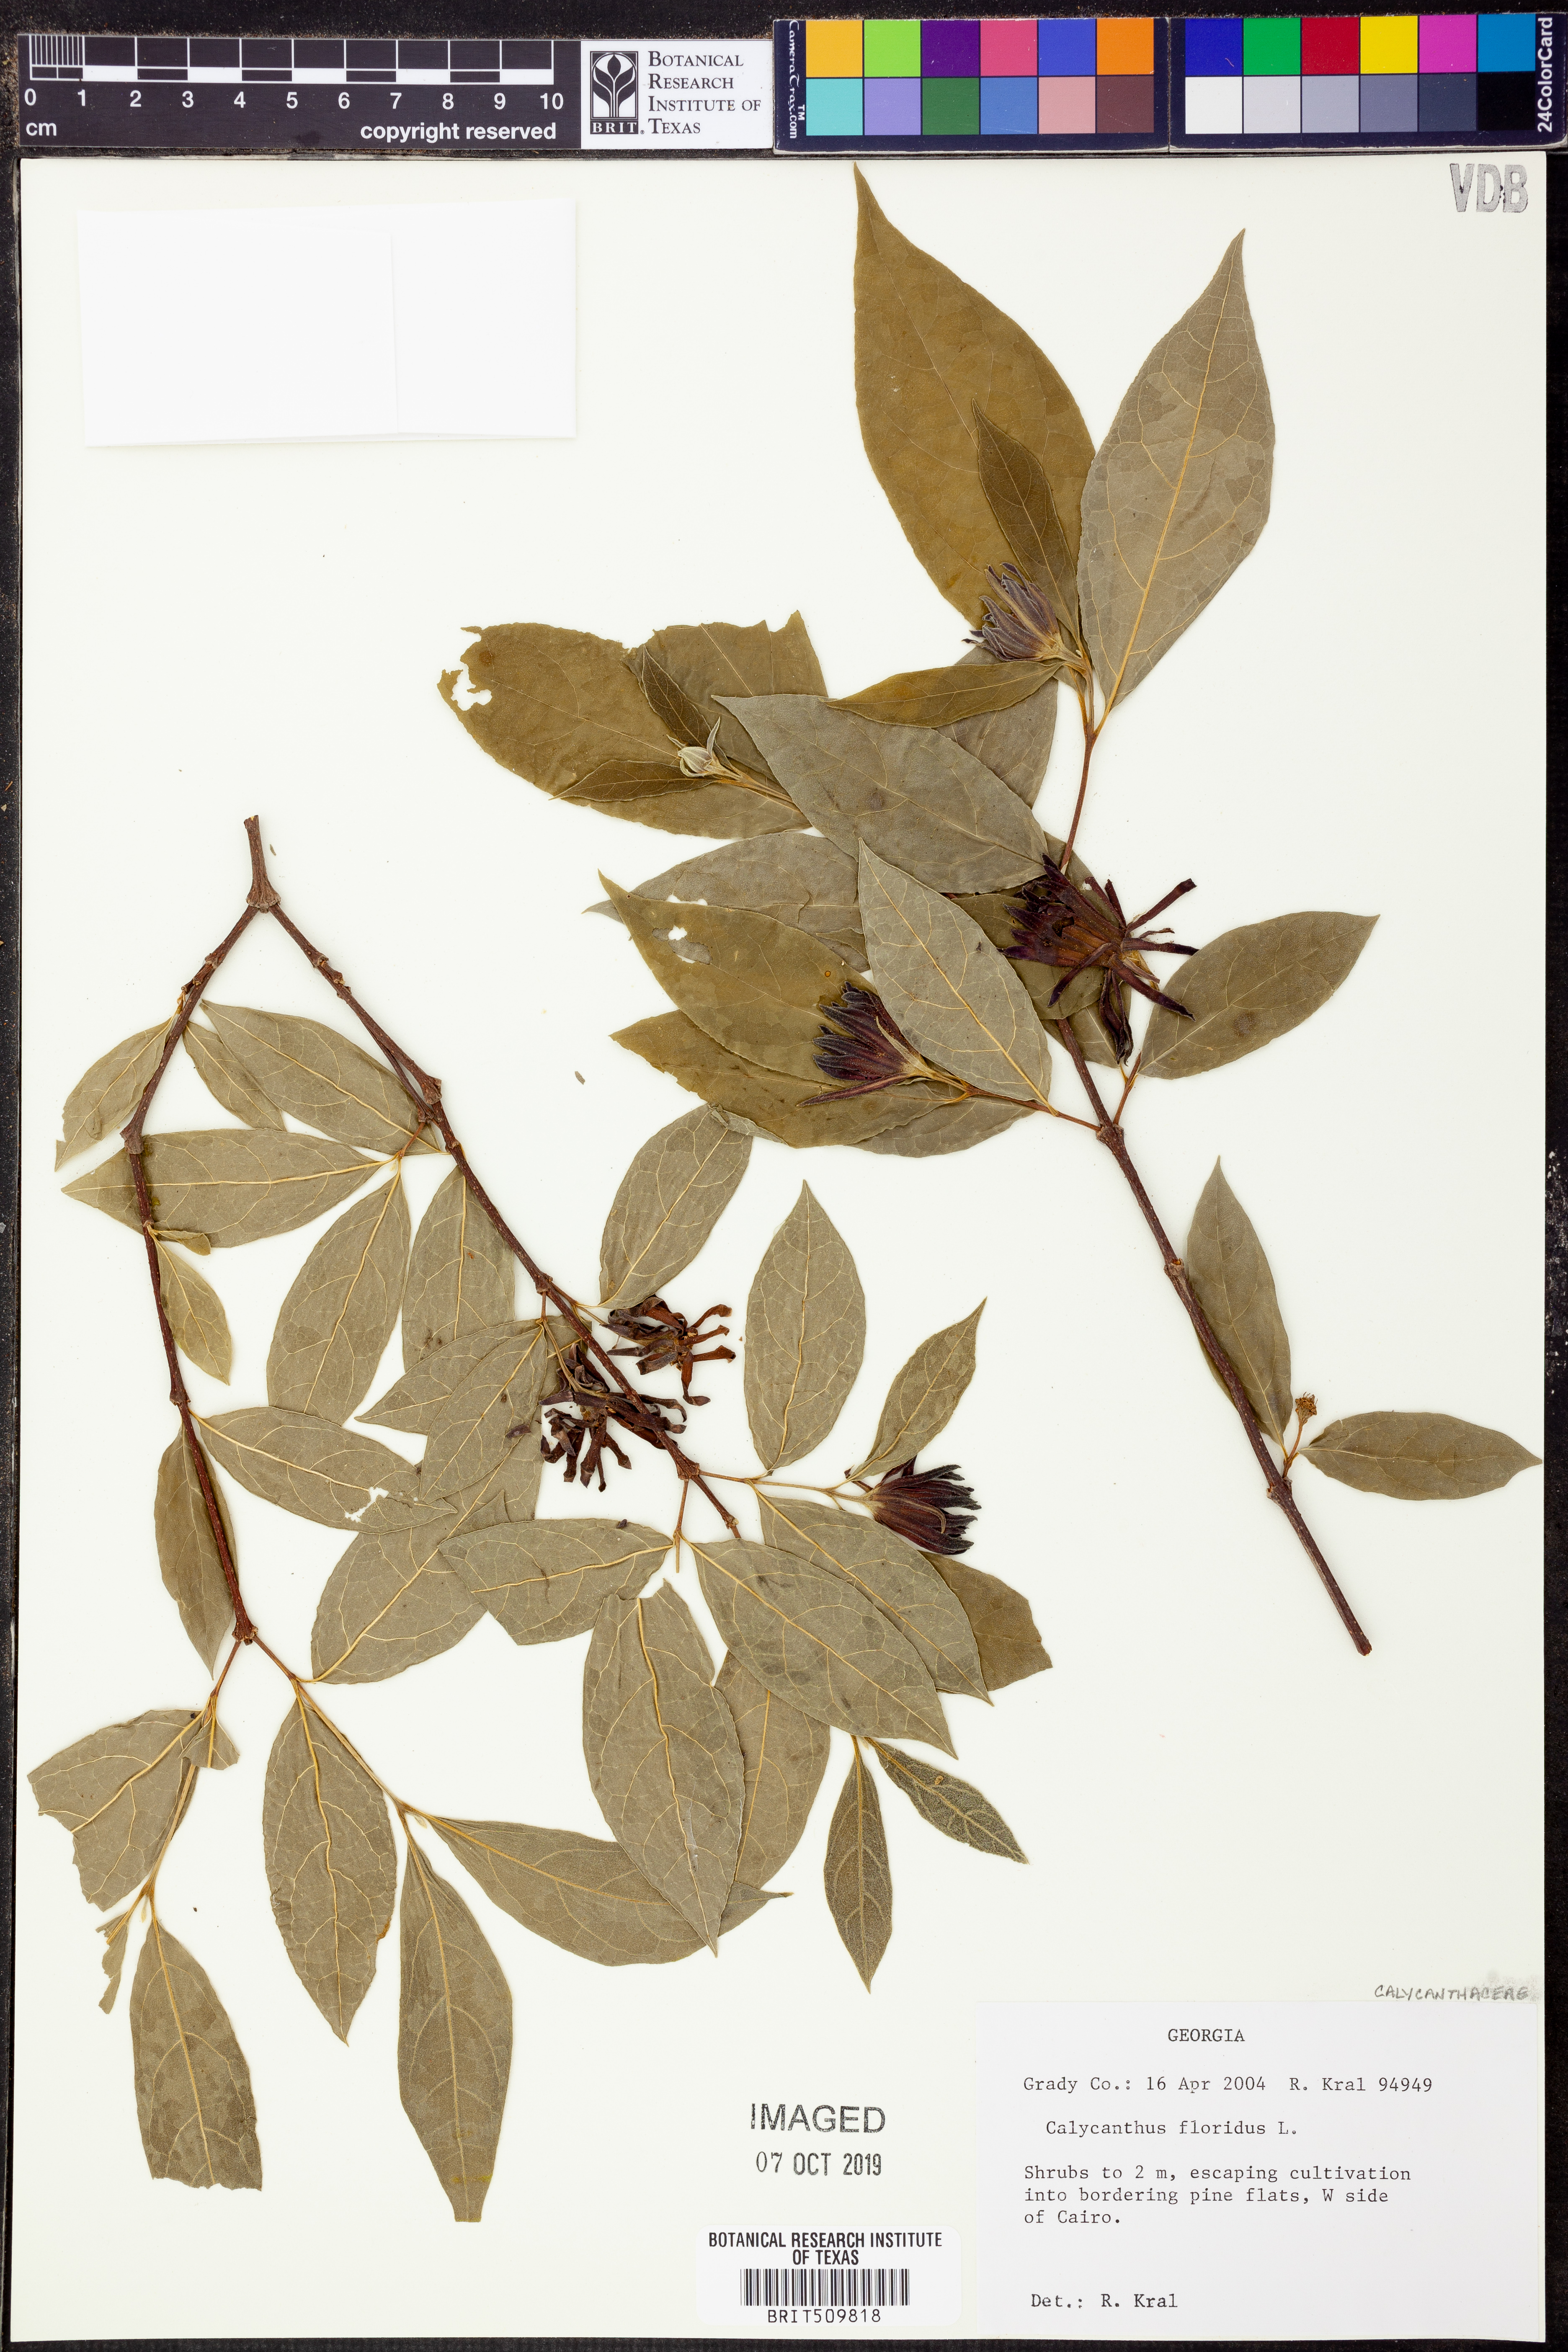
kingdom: Plantae
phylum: Tracheophyta
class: Magnoliopsida
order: Laurales
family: Calycanthaceae
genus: Calycanthus
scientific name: Calycanthus floridus
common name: Carolina-allspice
